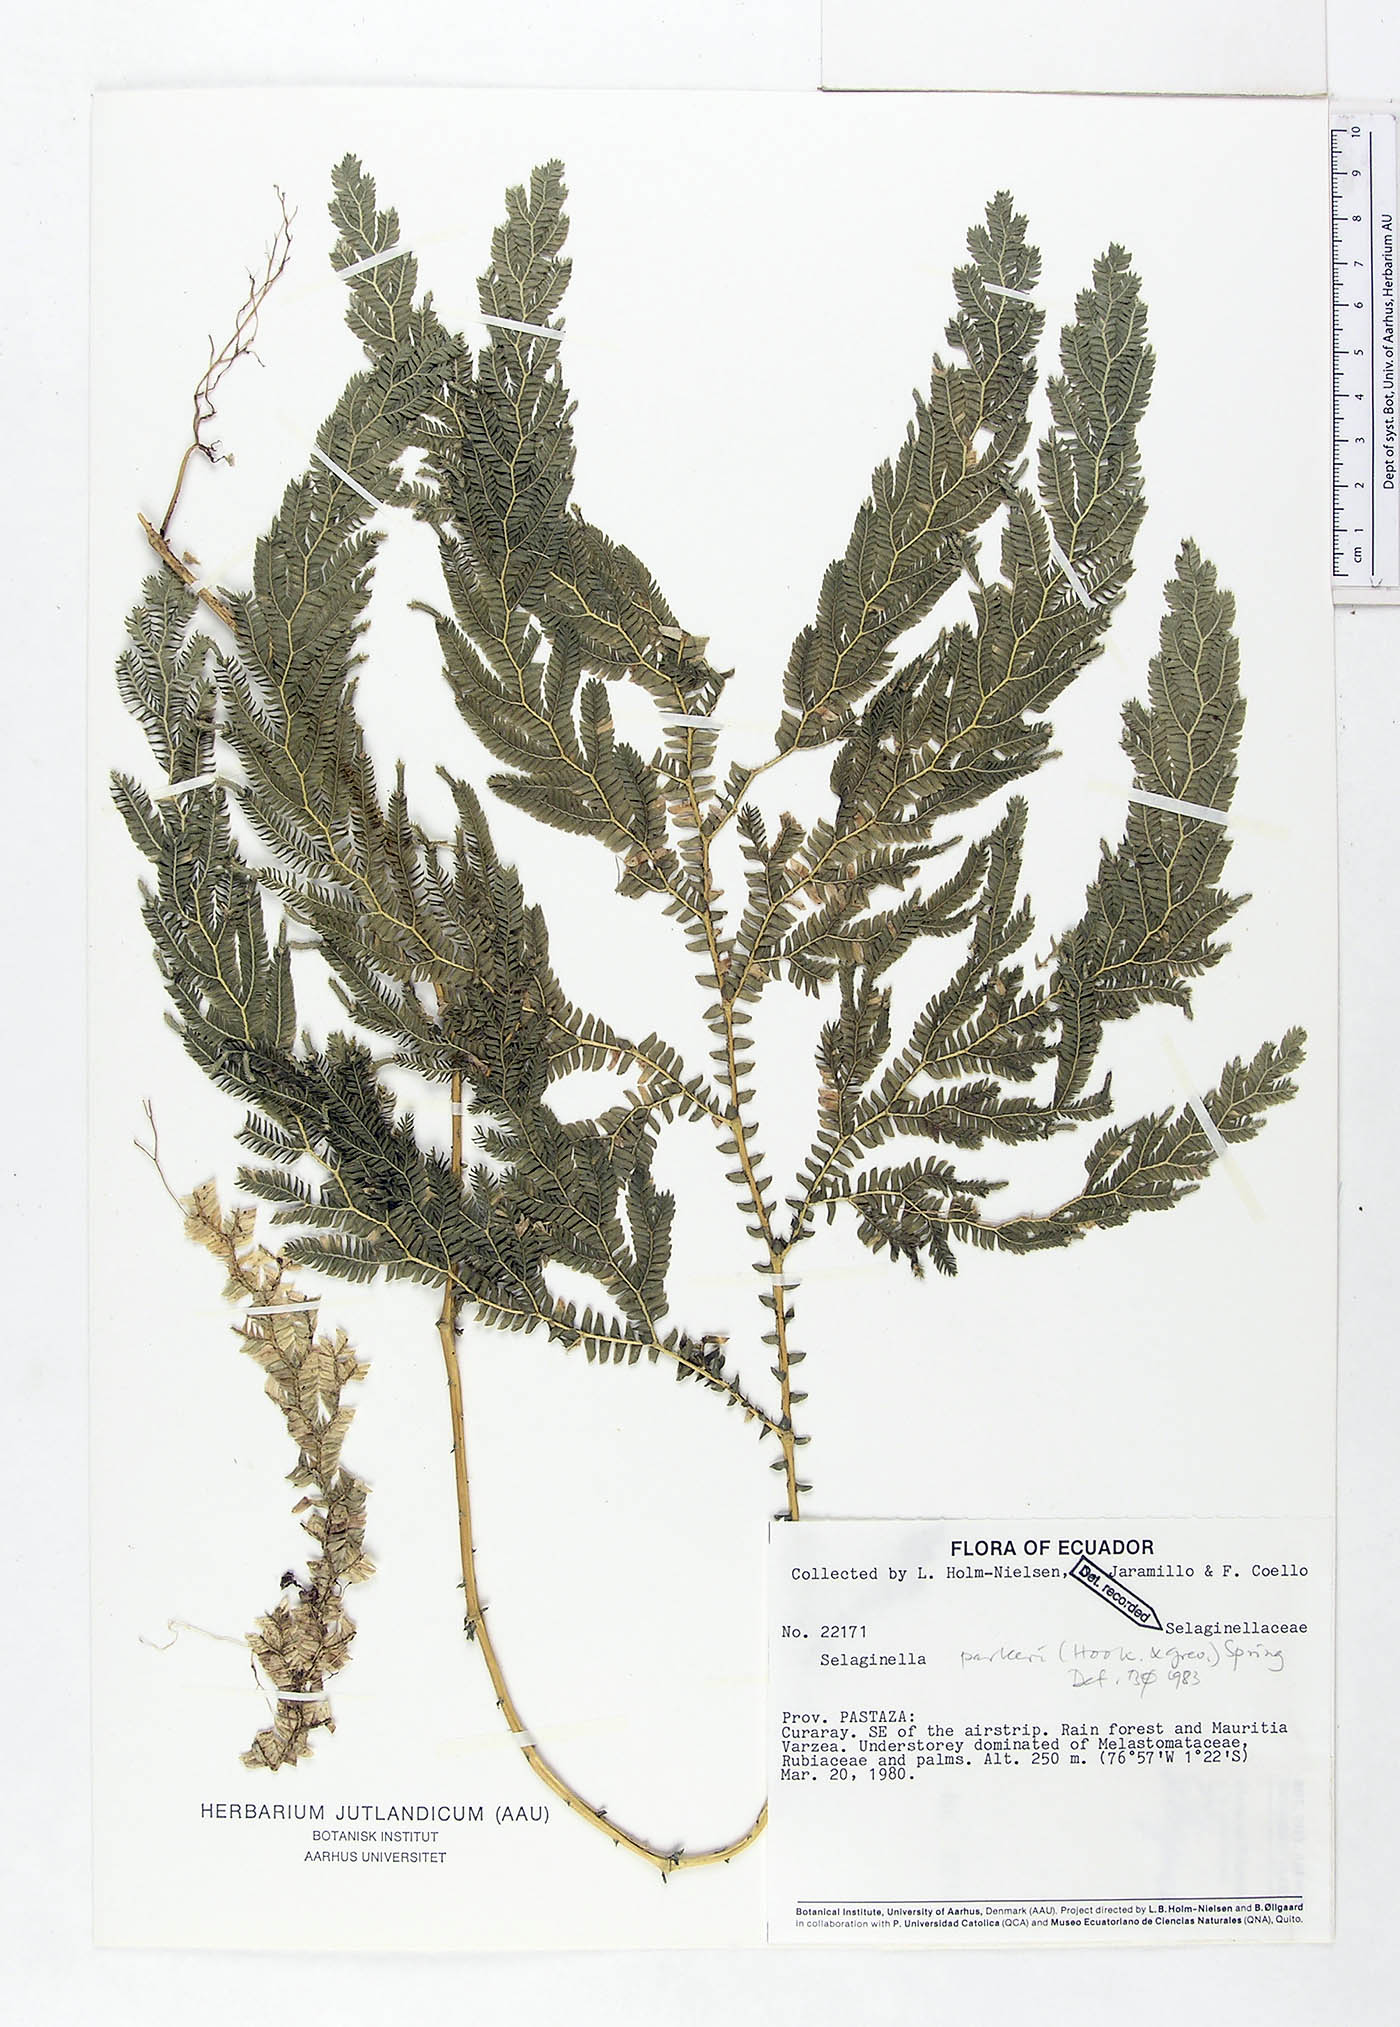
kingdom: Plantae
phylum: Tracheophyta
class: Lycopodiopsida
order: Selaginellales
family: Selaginellaceae
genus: Selaginella
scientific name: Selaginella parkeri
